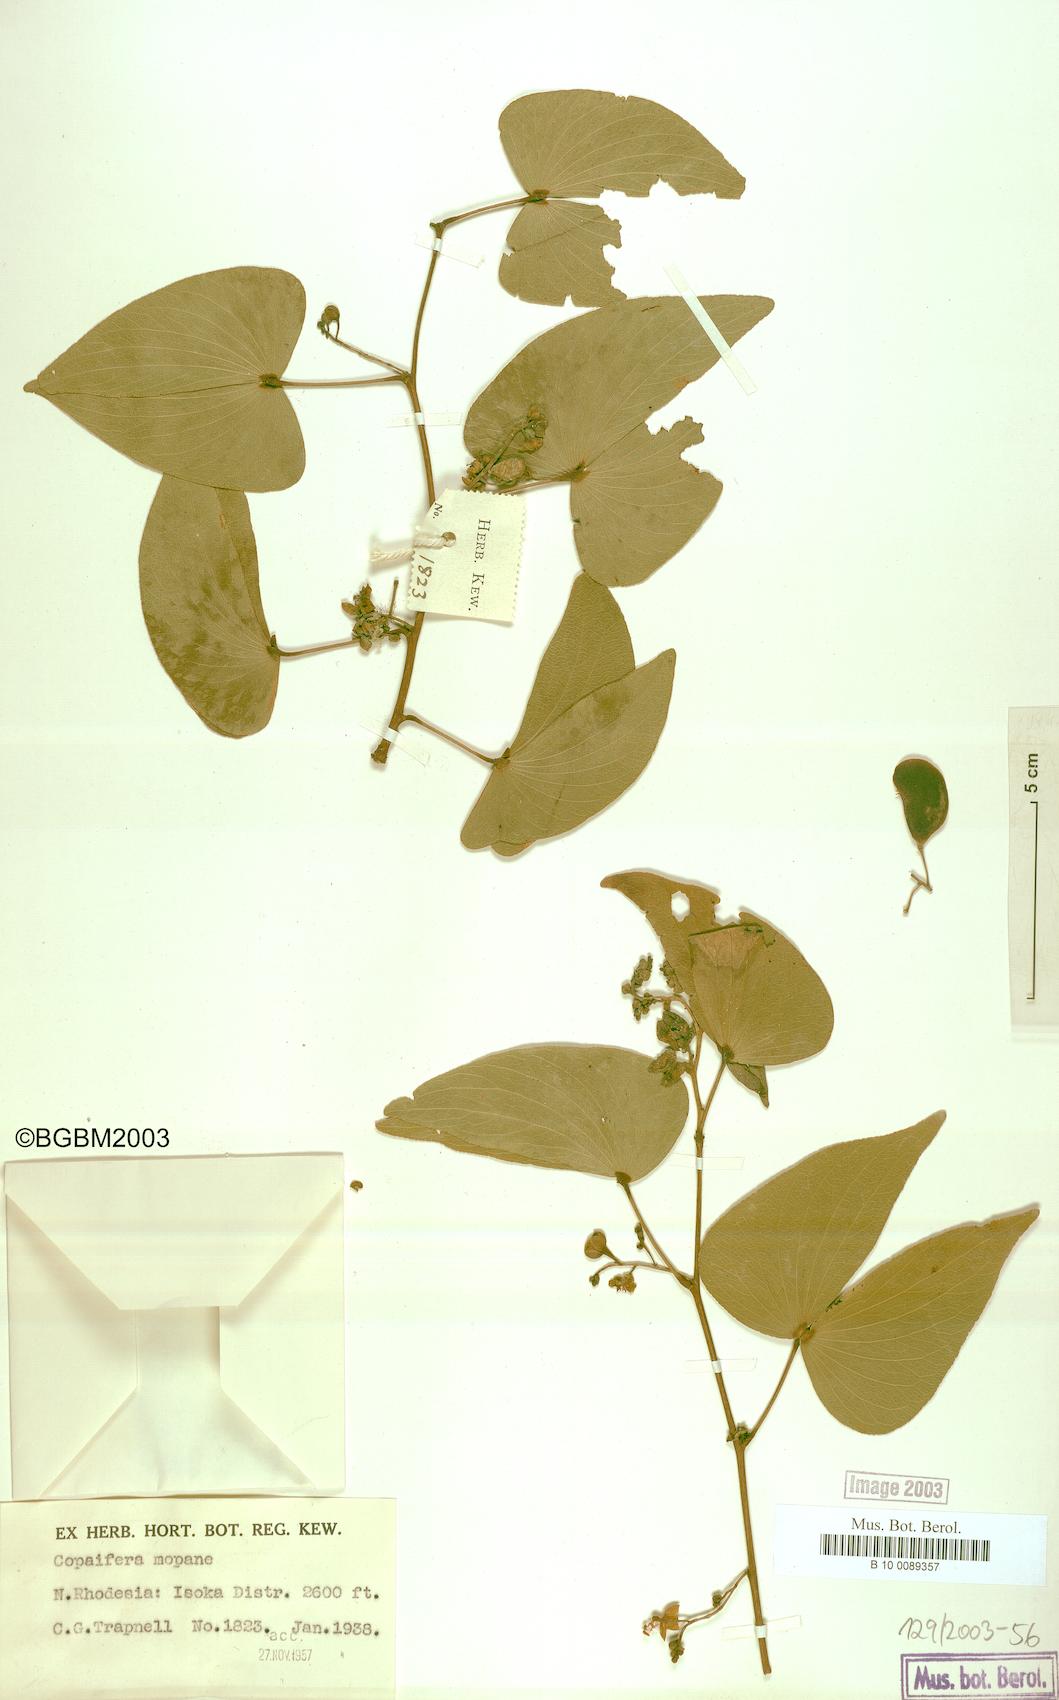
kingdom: Plantae
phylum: Tracheophyta
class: Magnoliopsida
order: Fabales
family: Fabaceae
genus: Colophospermum
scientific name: Colophospermum mopane
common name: Mopane
